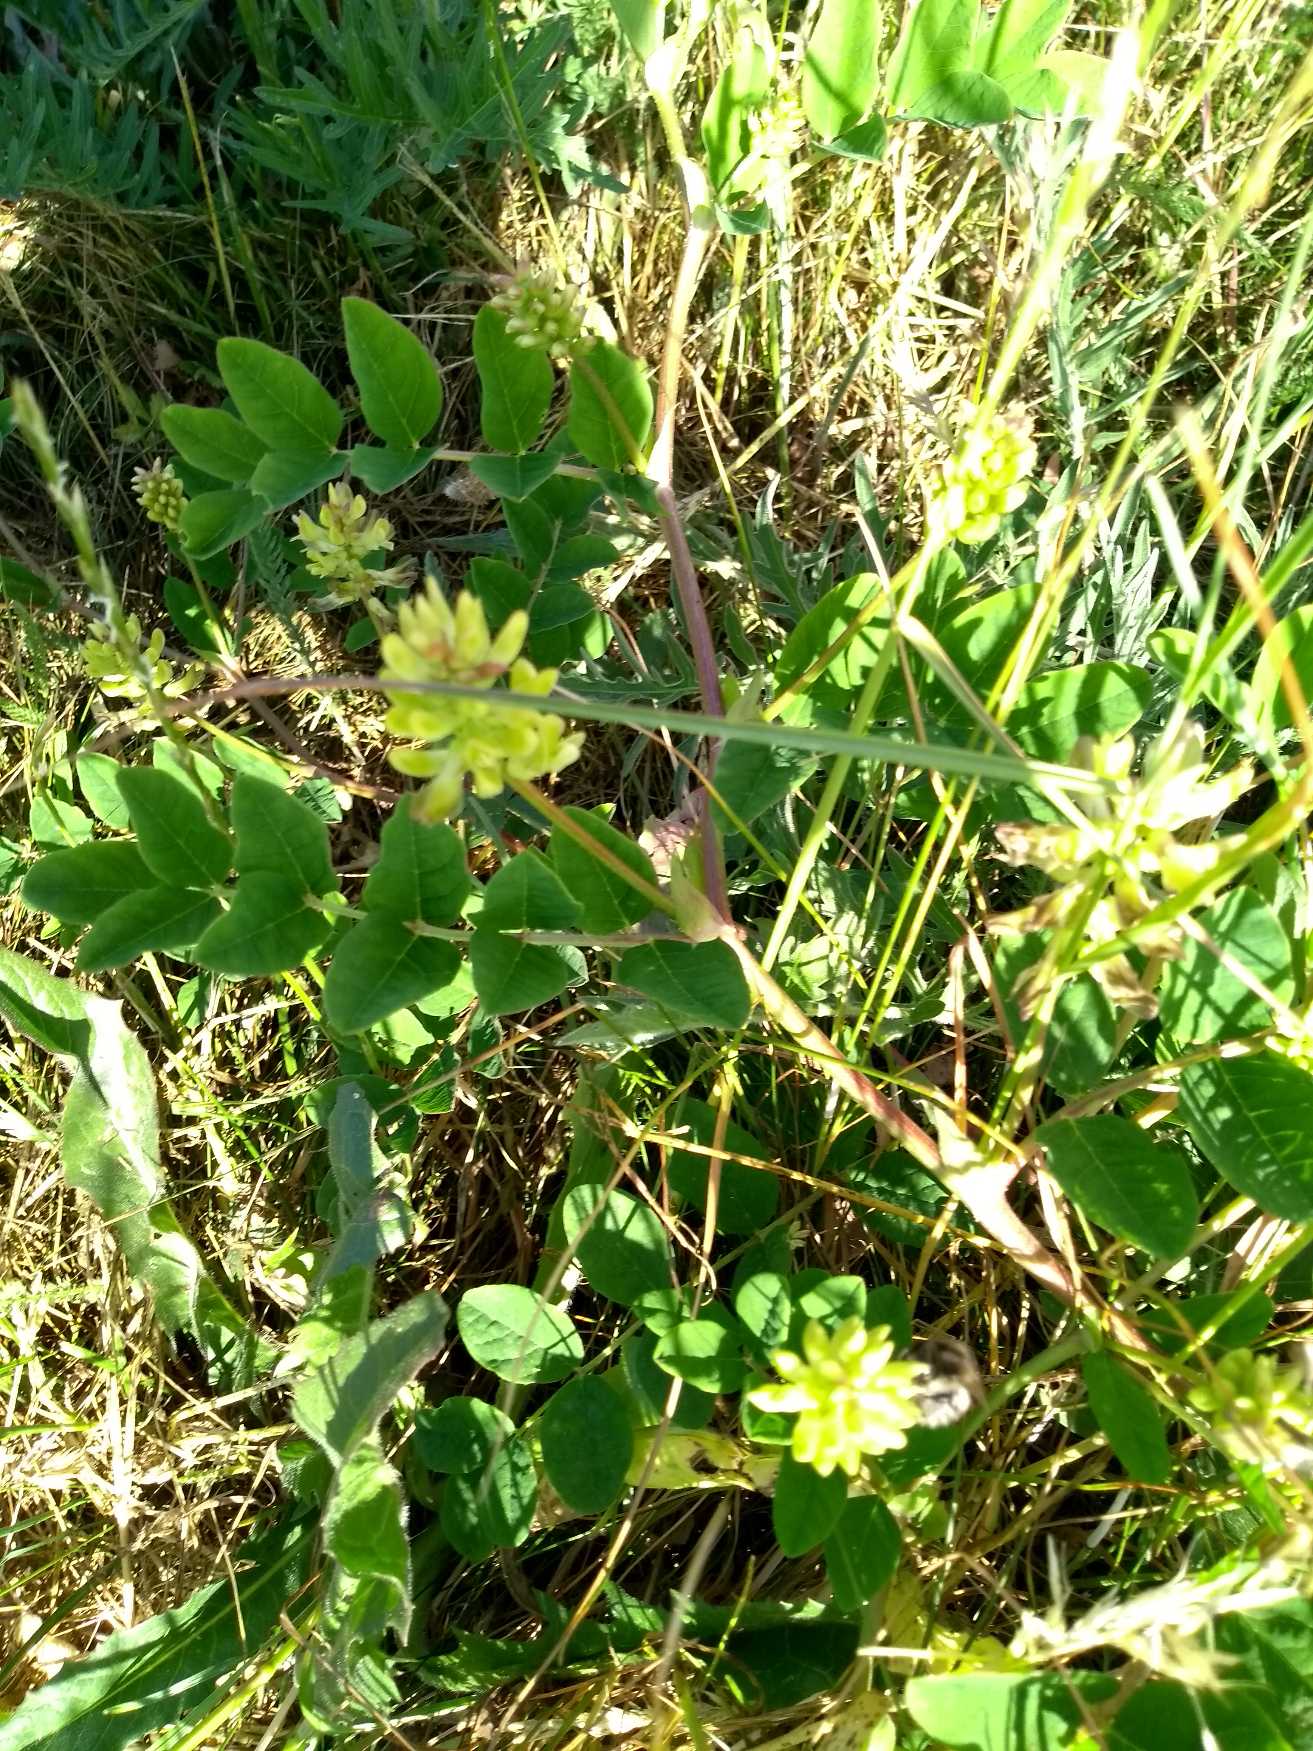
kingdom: Plantae
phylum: Tracheophyta
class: Magnoliopsida
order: Fabales
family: Fabaceae
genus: Astragalus
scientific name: Astragalus glycyphyllos
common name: Sød astragel
